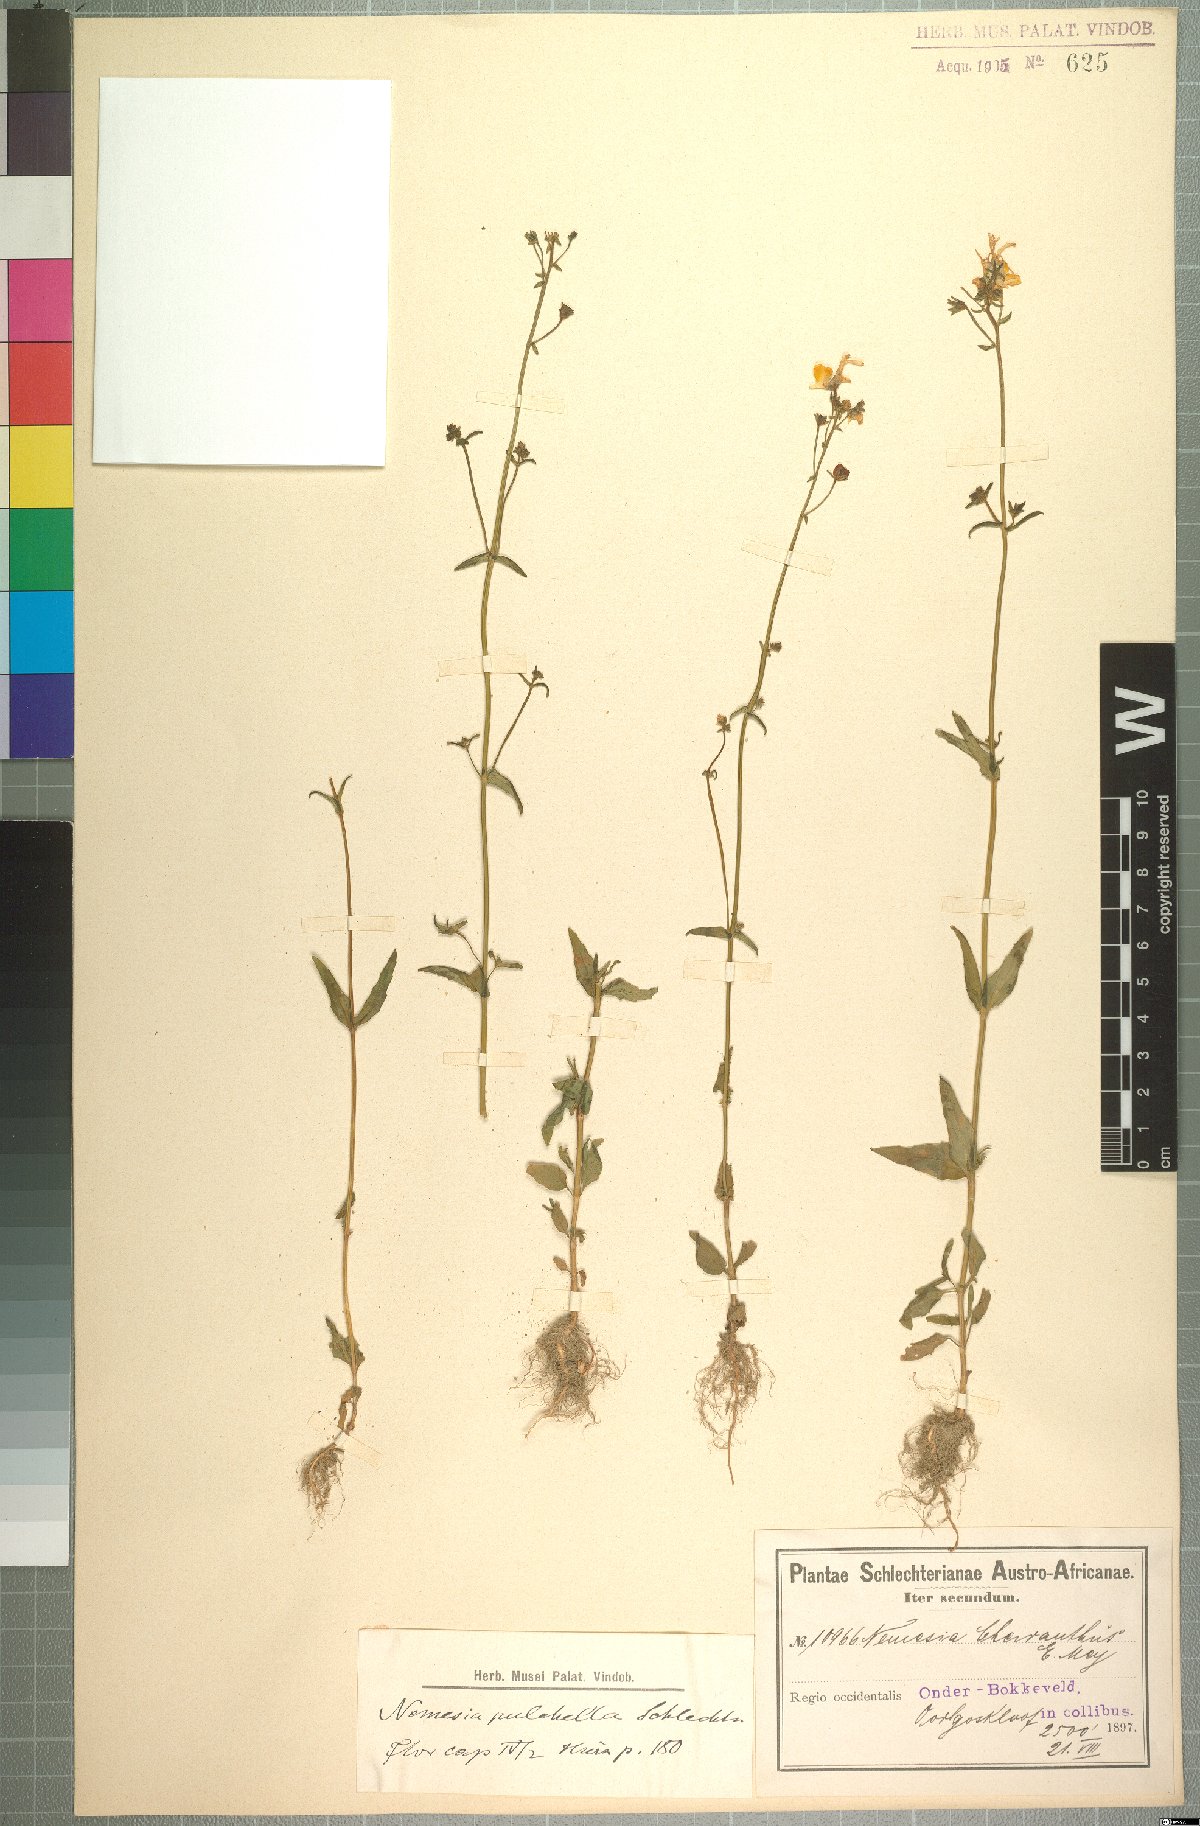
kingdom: Plantae
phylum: Tracheophyta
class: Magnoliopsida
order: Lamiales
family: Scrophulariaceae
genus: Nemesia
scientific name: Nemesia pulchella
